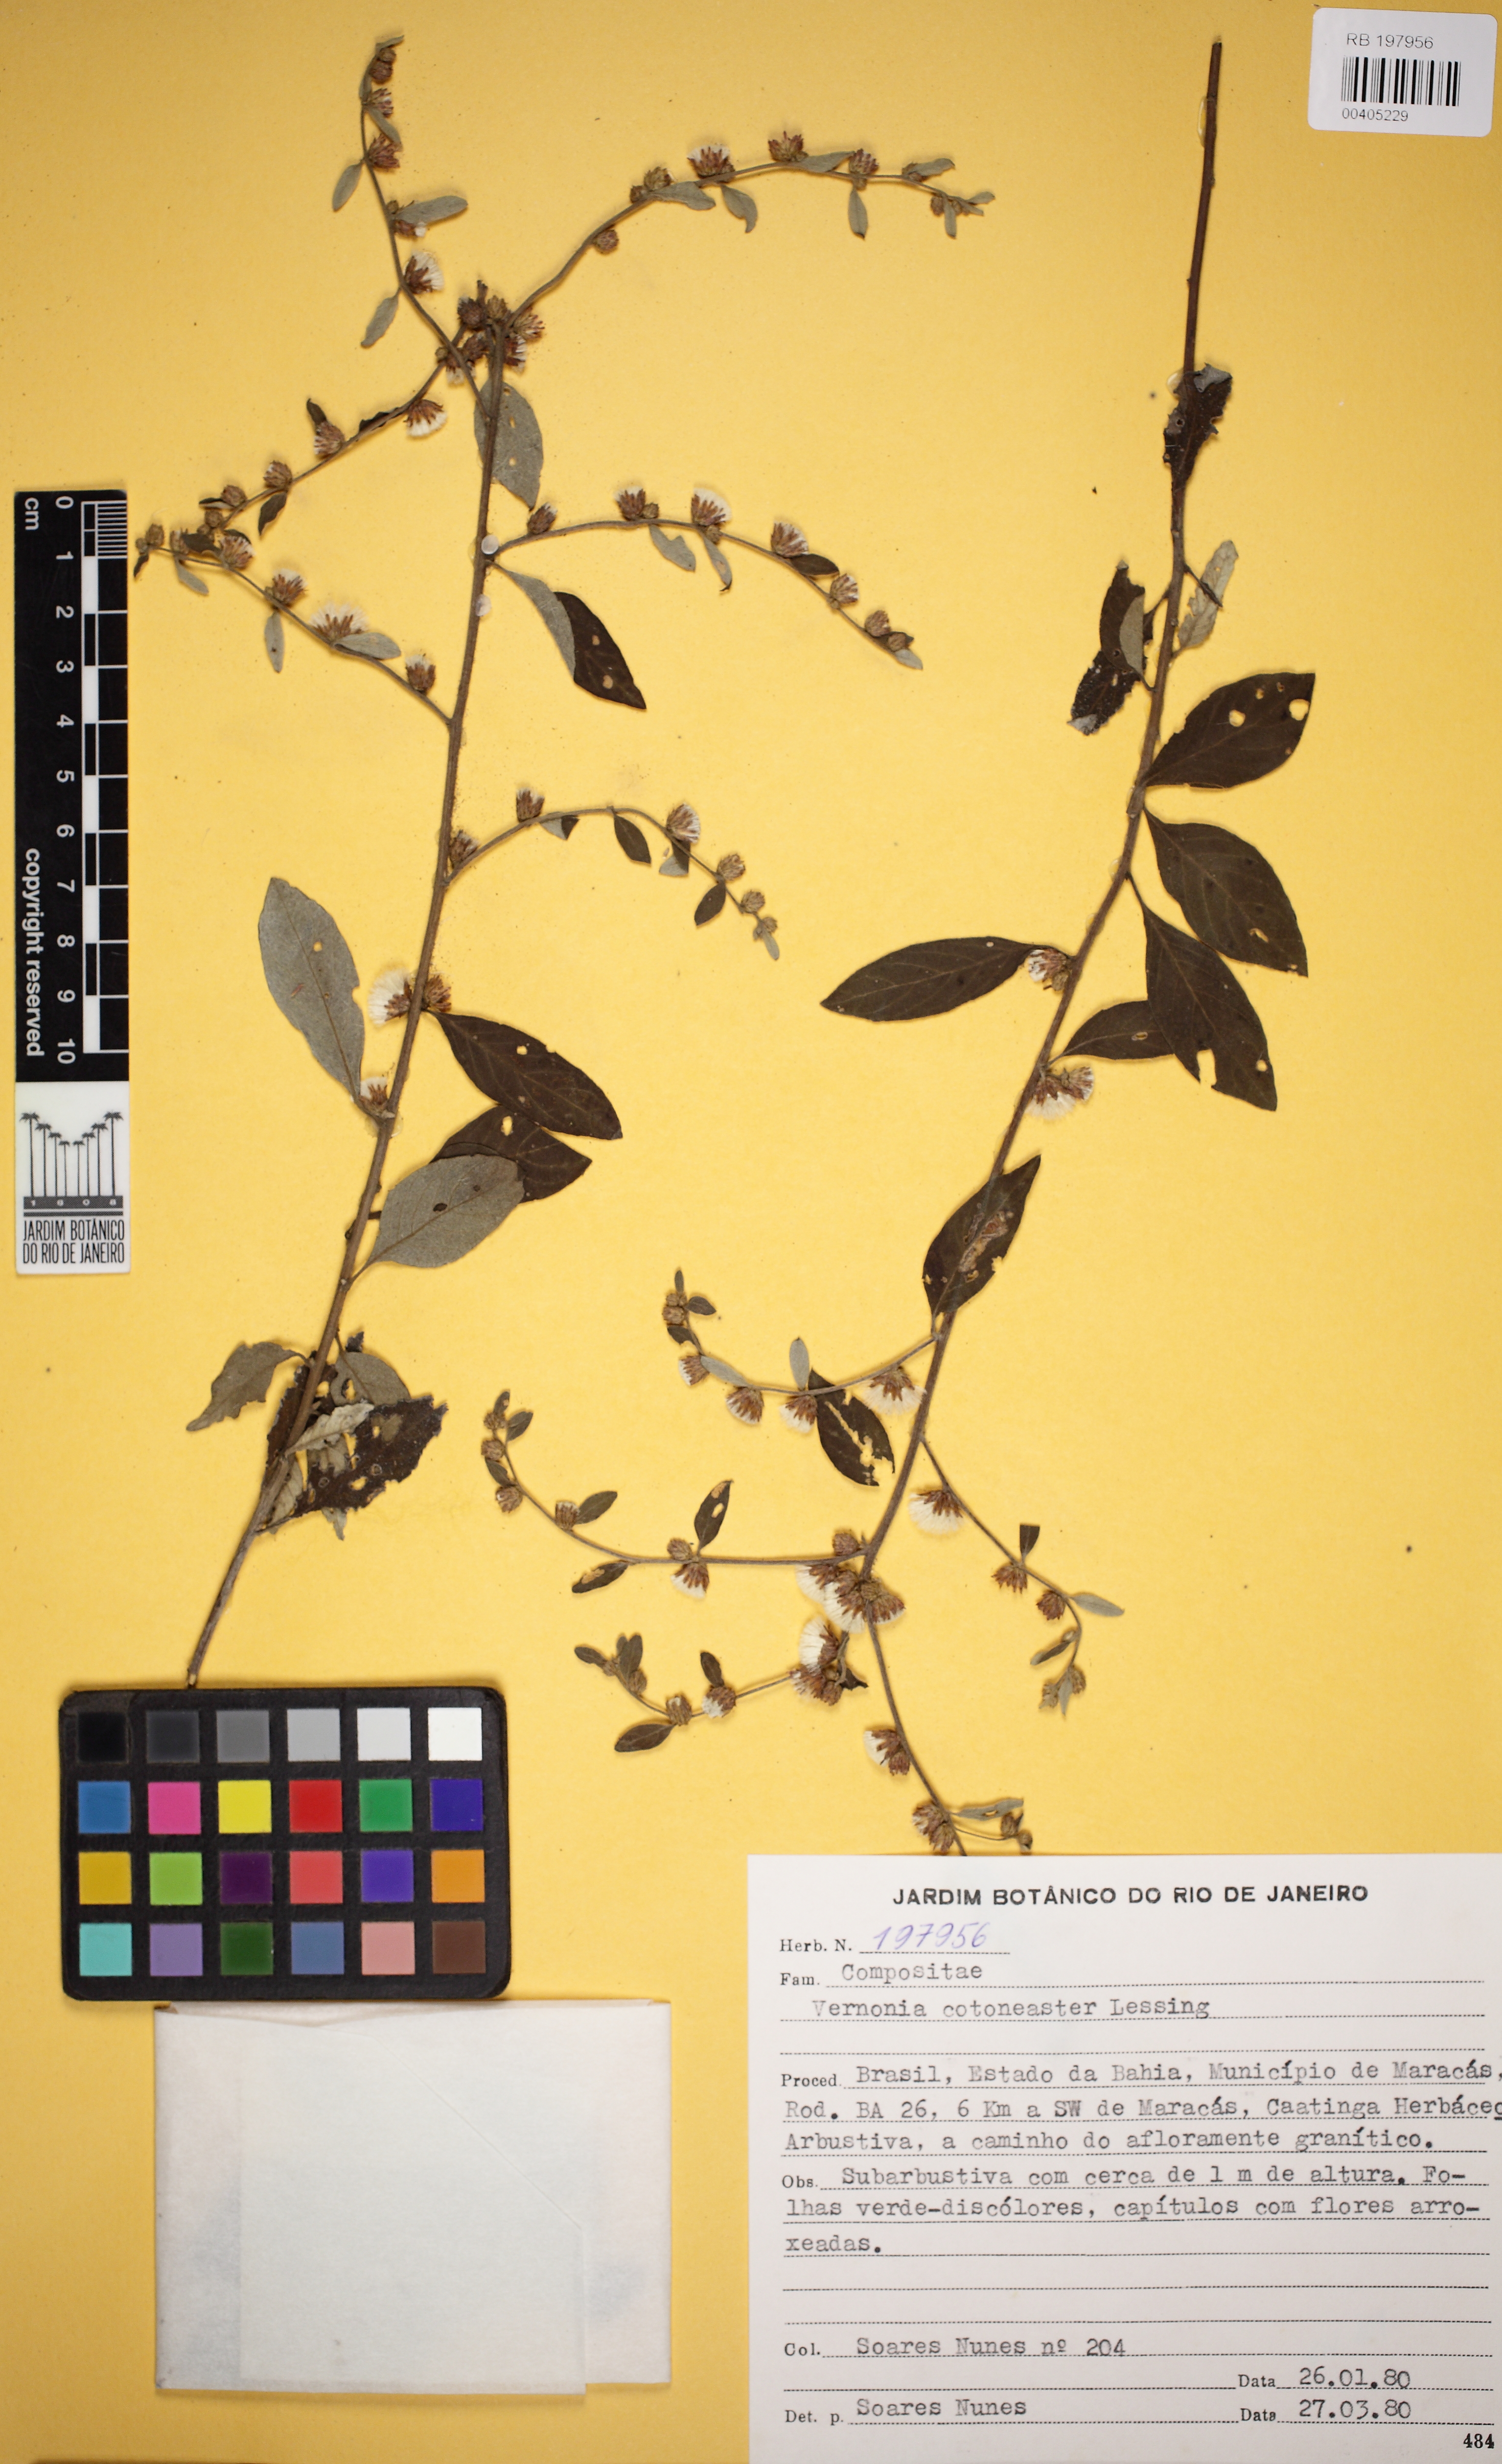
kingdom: Plantae
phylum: Tracheophyta
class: Magnoliopsida
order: Asterales
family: Asteraceae
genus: Lepidaploa
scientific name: Lepidaploa cotoneaster
